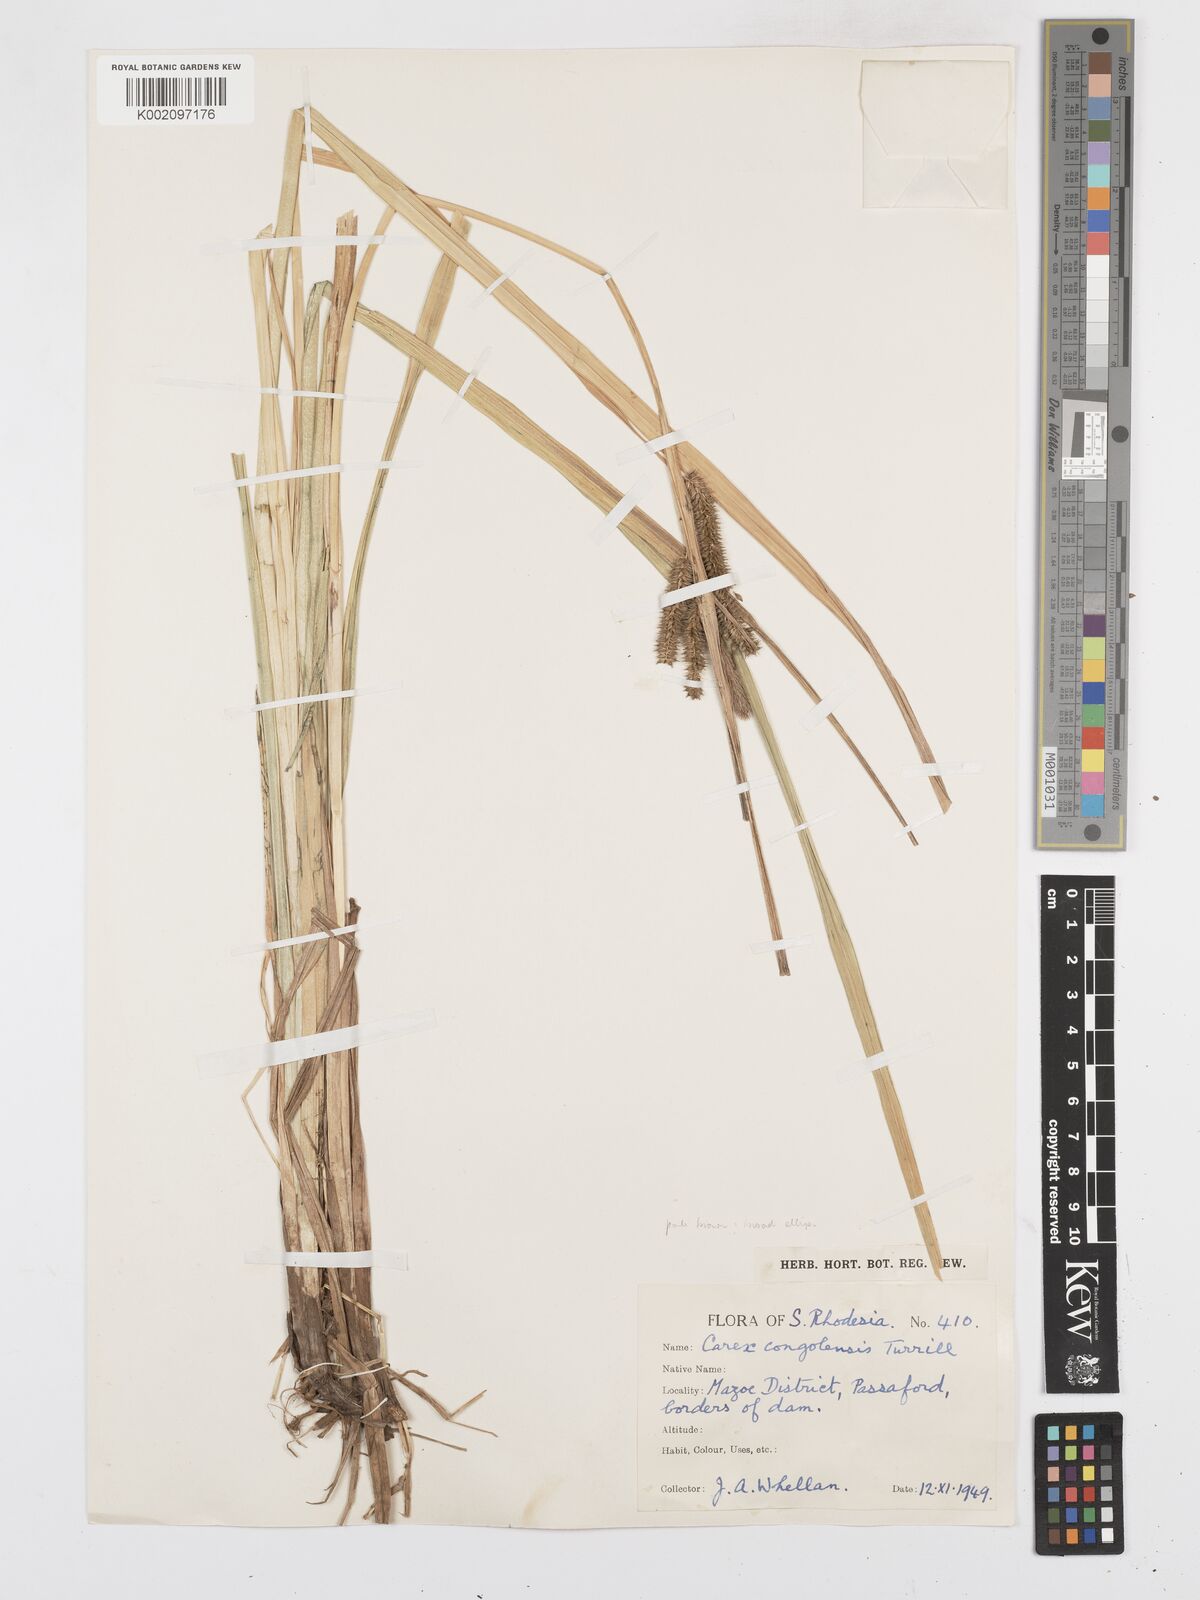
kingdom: Plantae
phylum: Tracheophyta
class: Liliopsida
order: Poales
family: Cyperaceae
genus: Carex
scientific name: Carex congolensis
